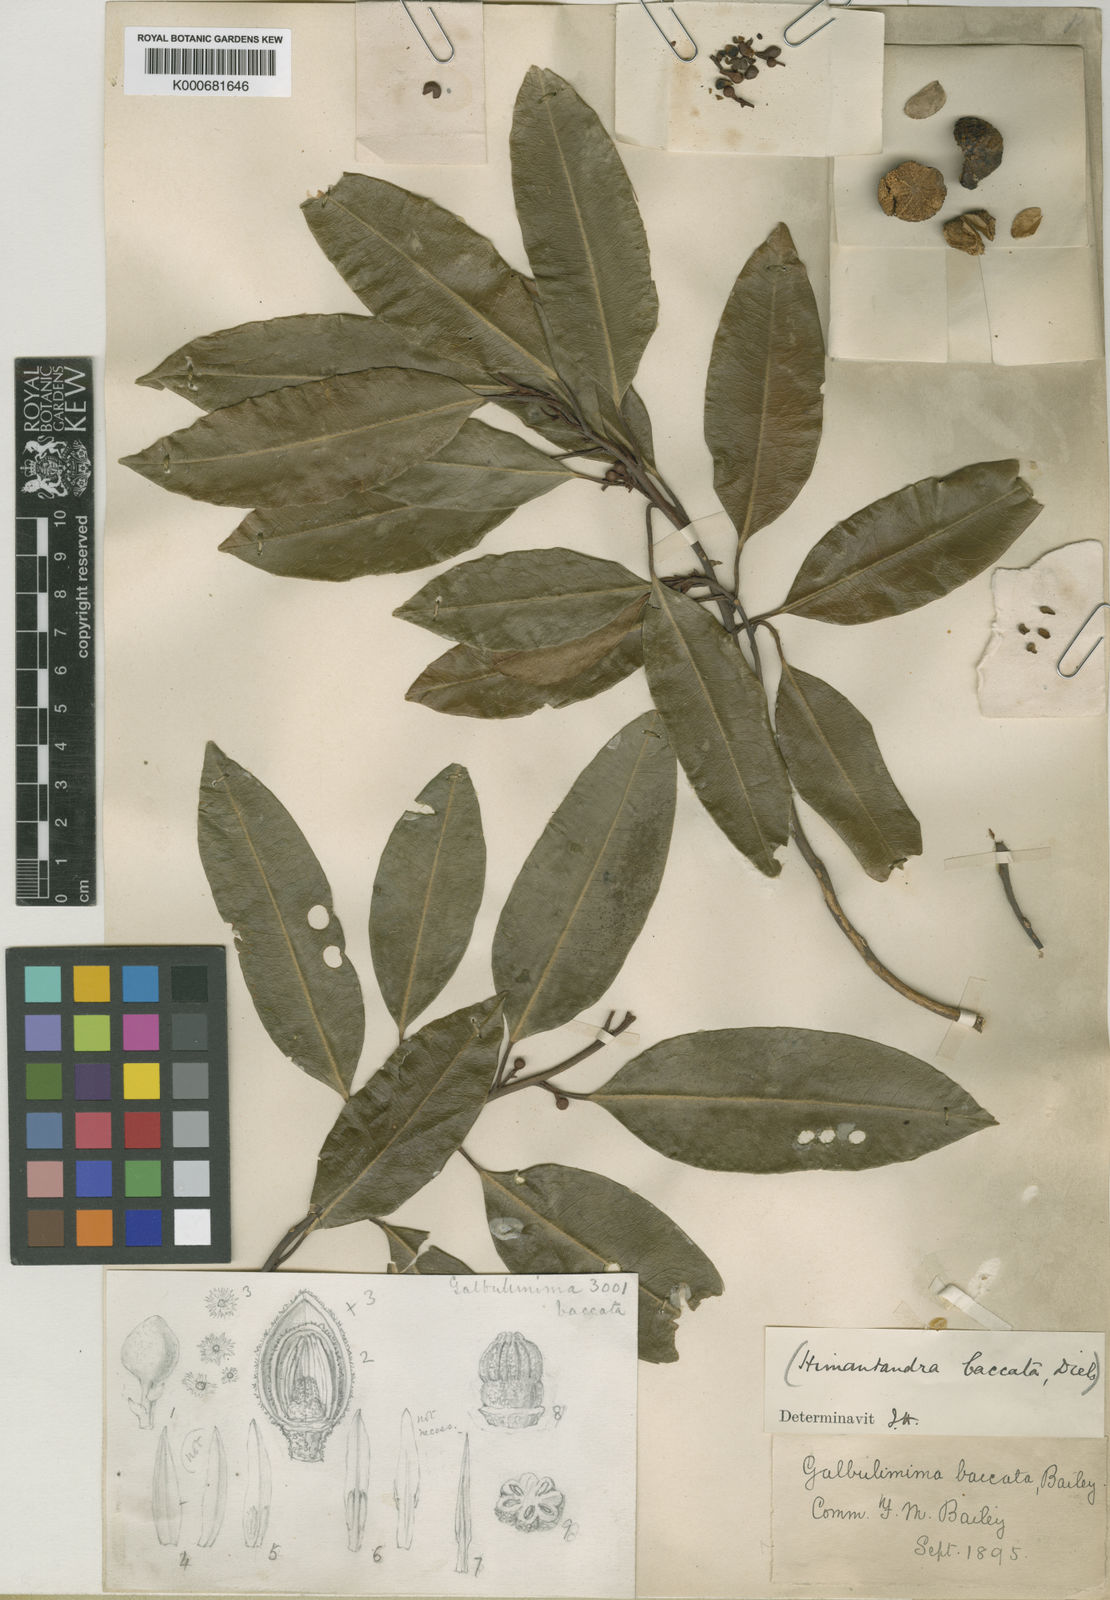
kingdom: Plantae
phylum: Tracheophyta
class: Magnoliopsida
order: Magnoliales
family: Himantandraceae
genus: Galbulimima
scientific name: Galbulimima belgraveana
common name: Northern pigeonberry-ash
